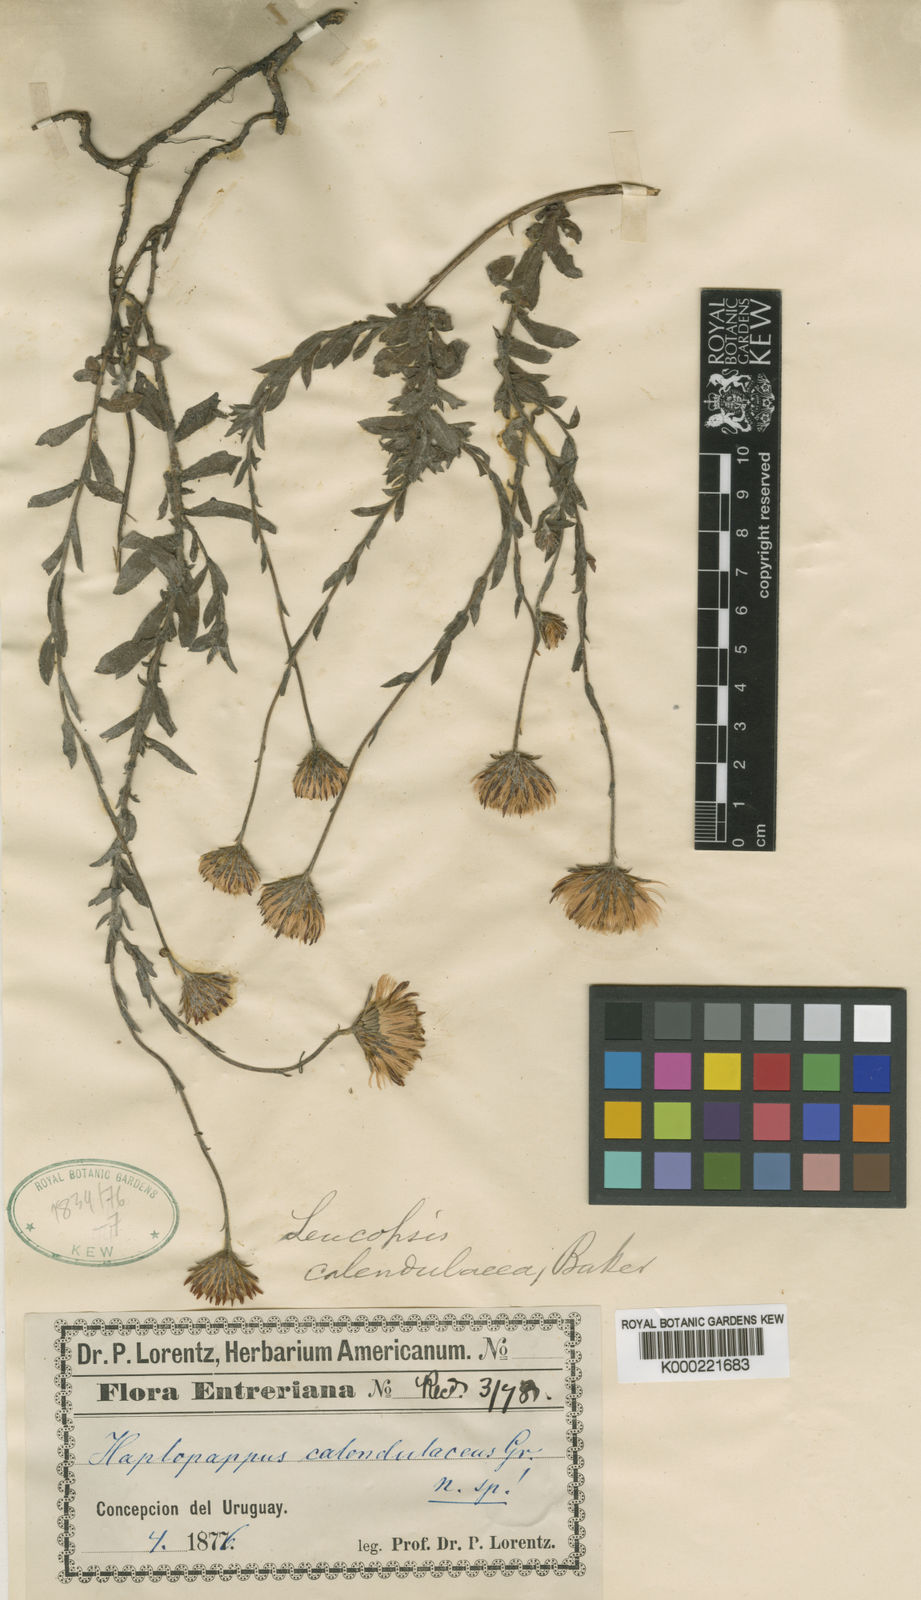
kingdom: Plantae
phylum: Tracheophyta
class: Magnoliopsida
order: Asterales
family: Asteraceae
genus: Noticastrum
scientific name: Noticastrum acuminatum
